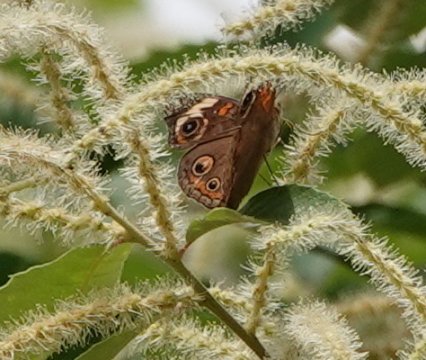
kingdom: Animalia
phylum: Arthropoda
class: Insecta
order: Lepidoptera
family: Nymphalidae
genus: Junonia
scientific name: Junonia coenia
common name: Common Buckeye
